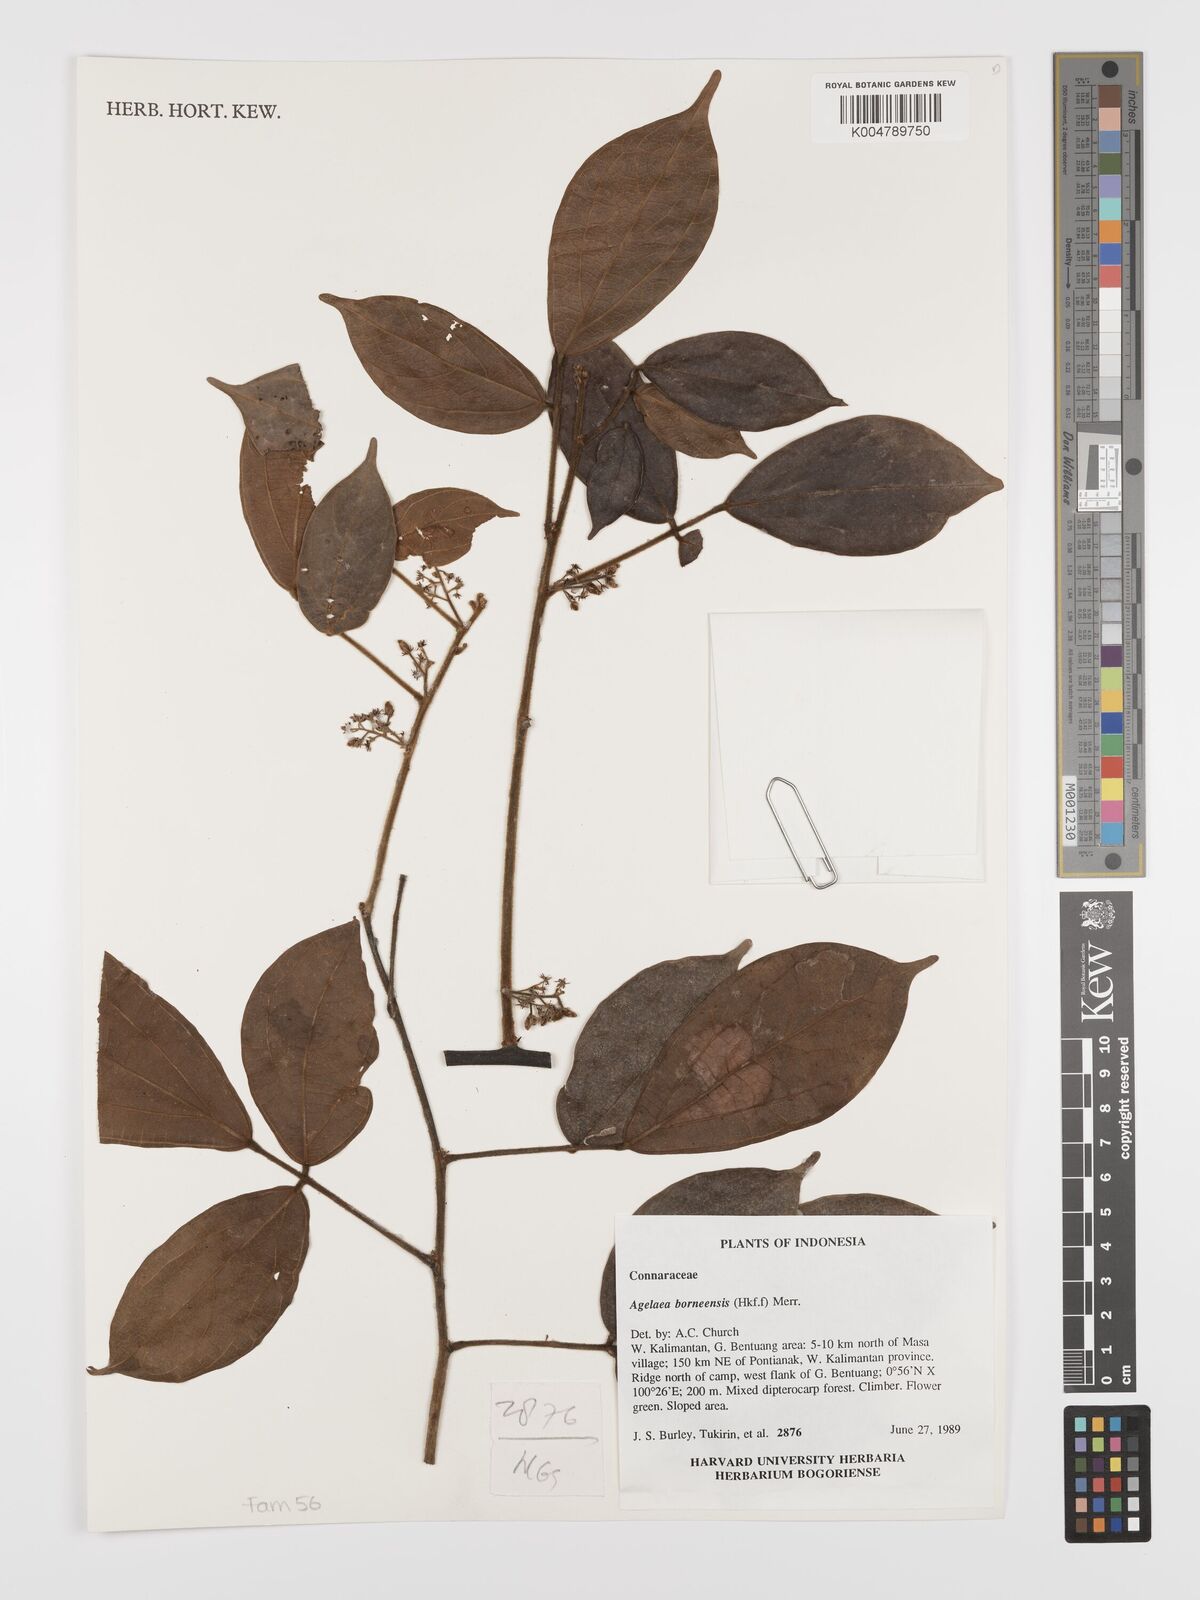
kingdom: Plantae
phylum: Tracheophyta
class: Magnoliopsida
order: Oxalidales
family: Connaraceae
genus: Agelaea
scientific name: Agelaea borneensis
